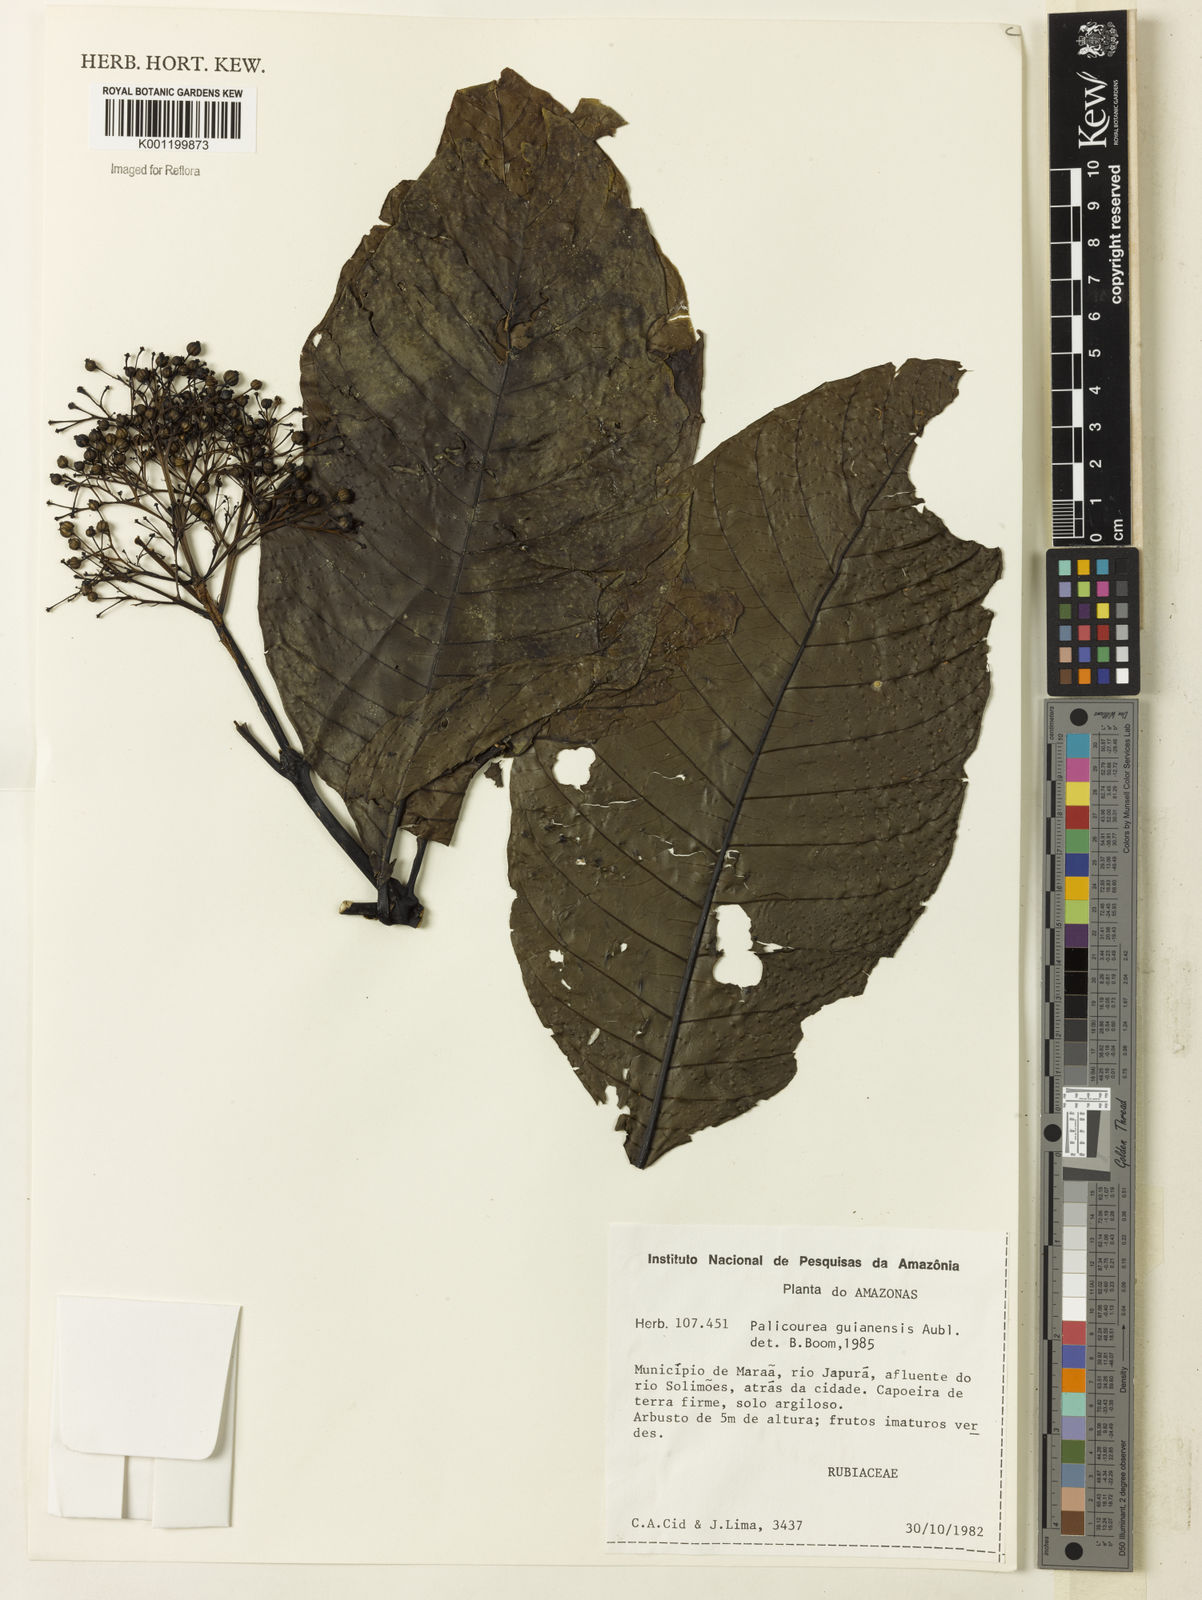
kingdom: Plantae
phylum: Tracheophyta
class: Magnoliopsida
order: Gentianales
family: Rubiaceae
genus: Palicourea
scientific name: Palicourea guianensis
